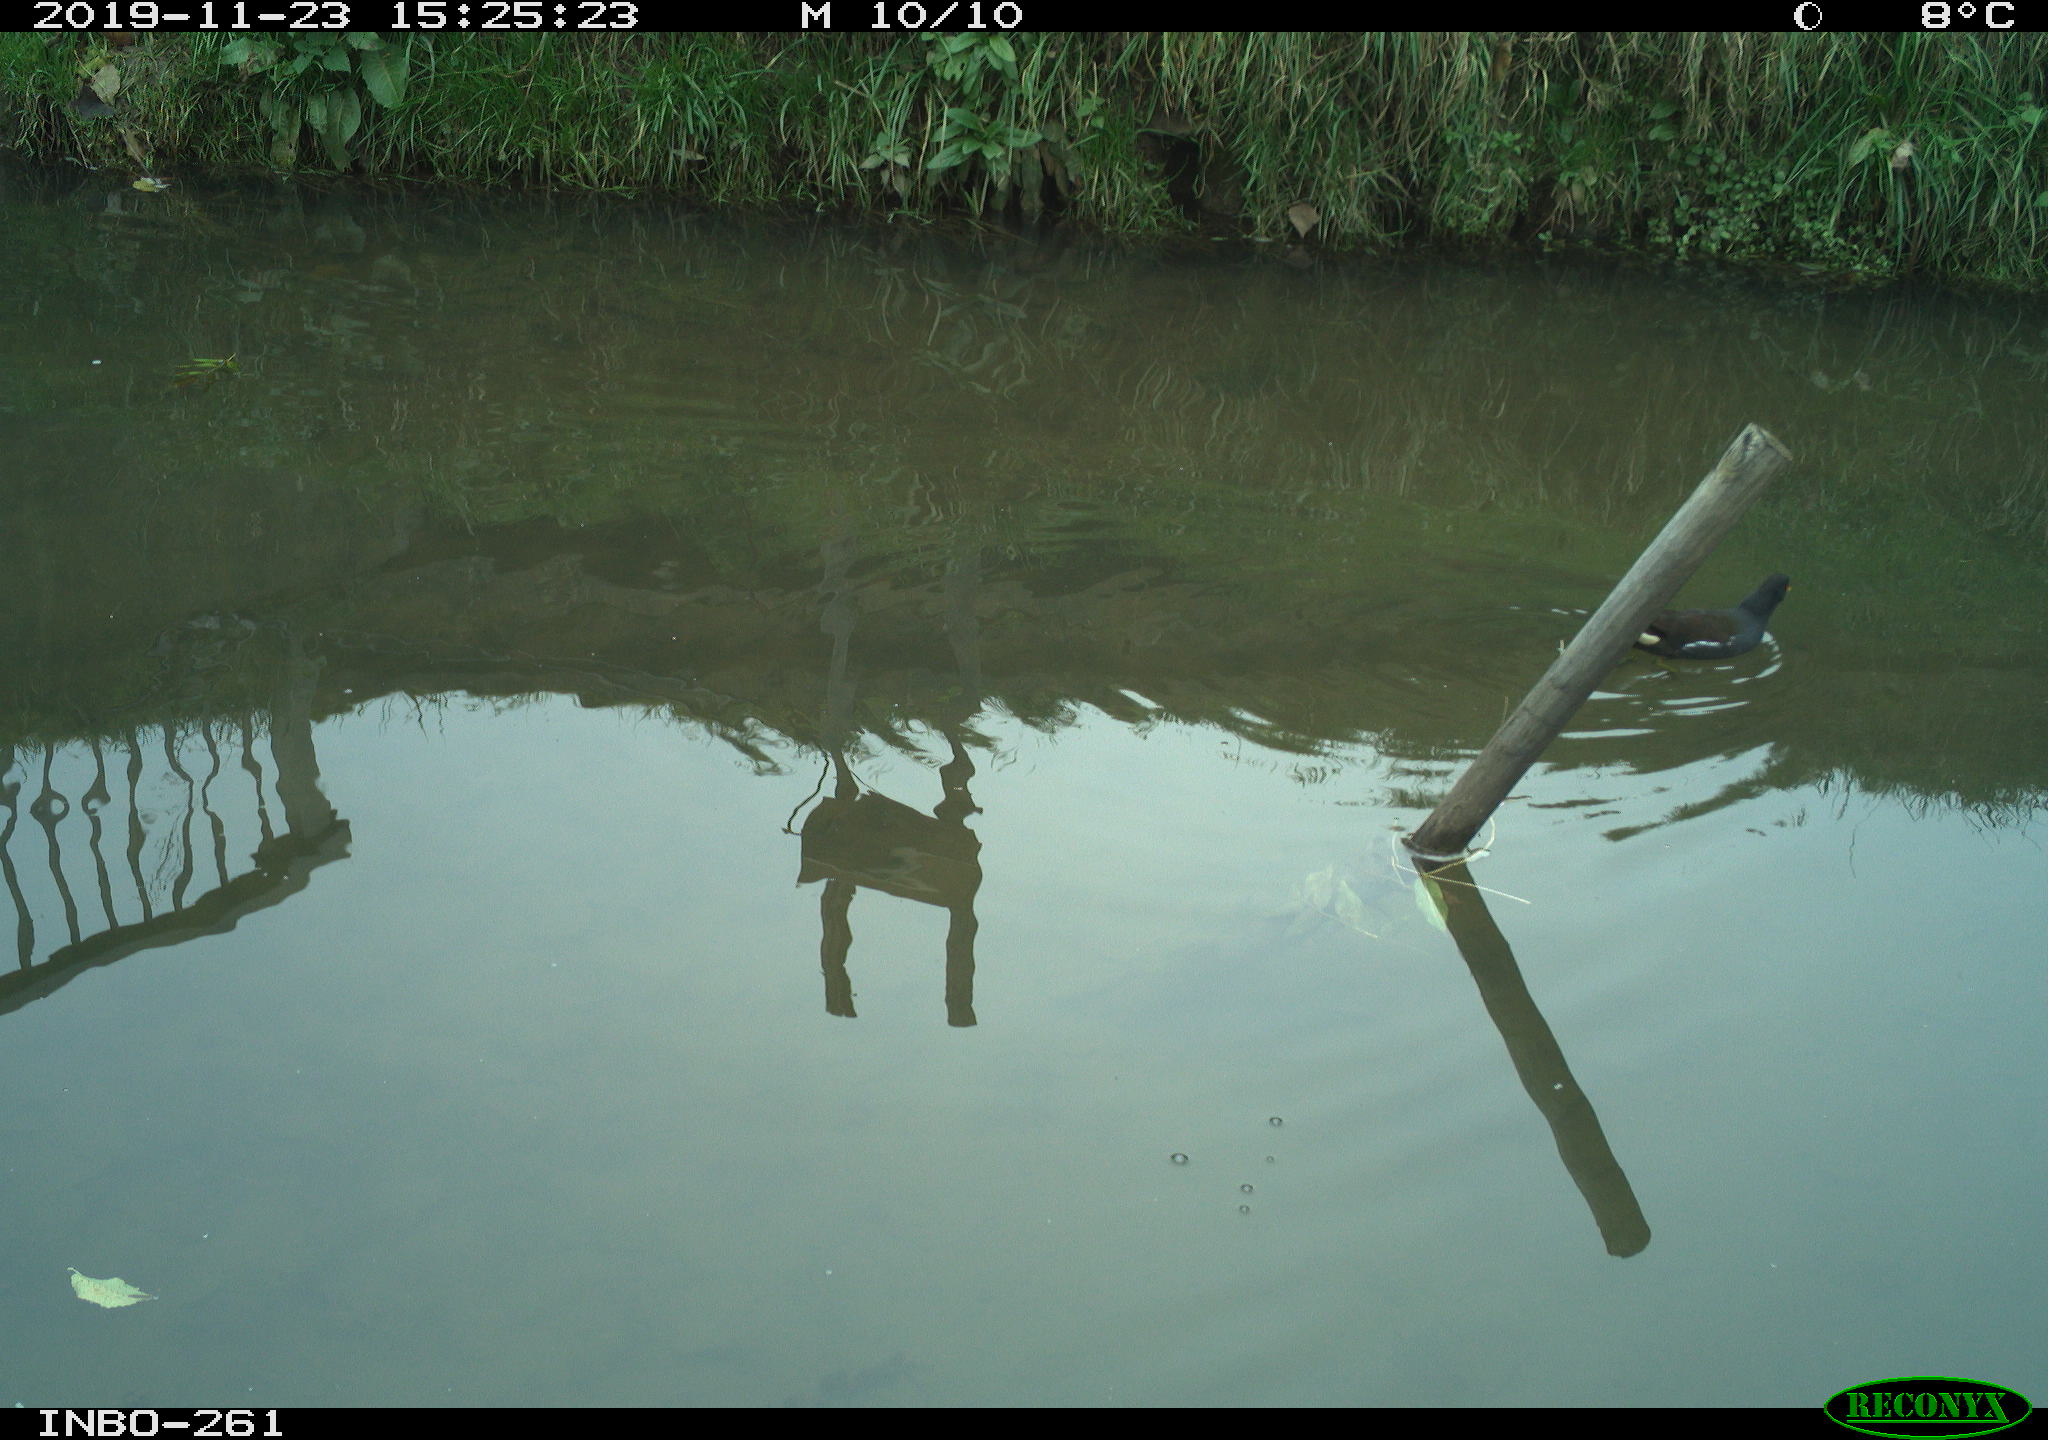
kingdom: Animalia
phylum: Chordata
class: Aves
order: Gruiformes
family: Rallidae
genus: Gallinula
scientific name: Gallinula chloropus
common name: Common moorhen
